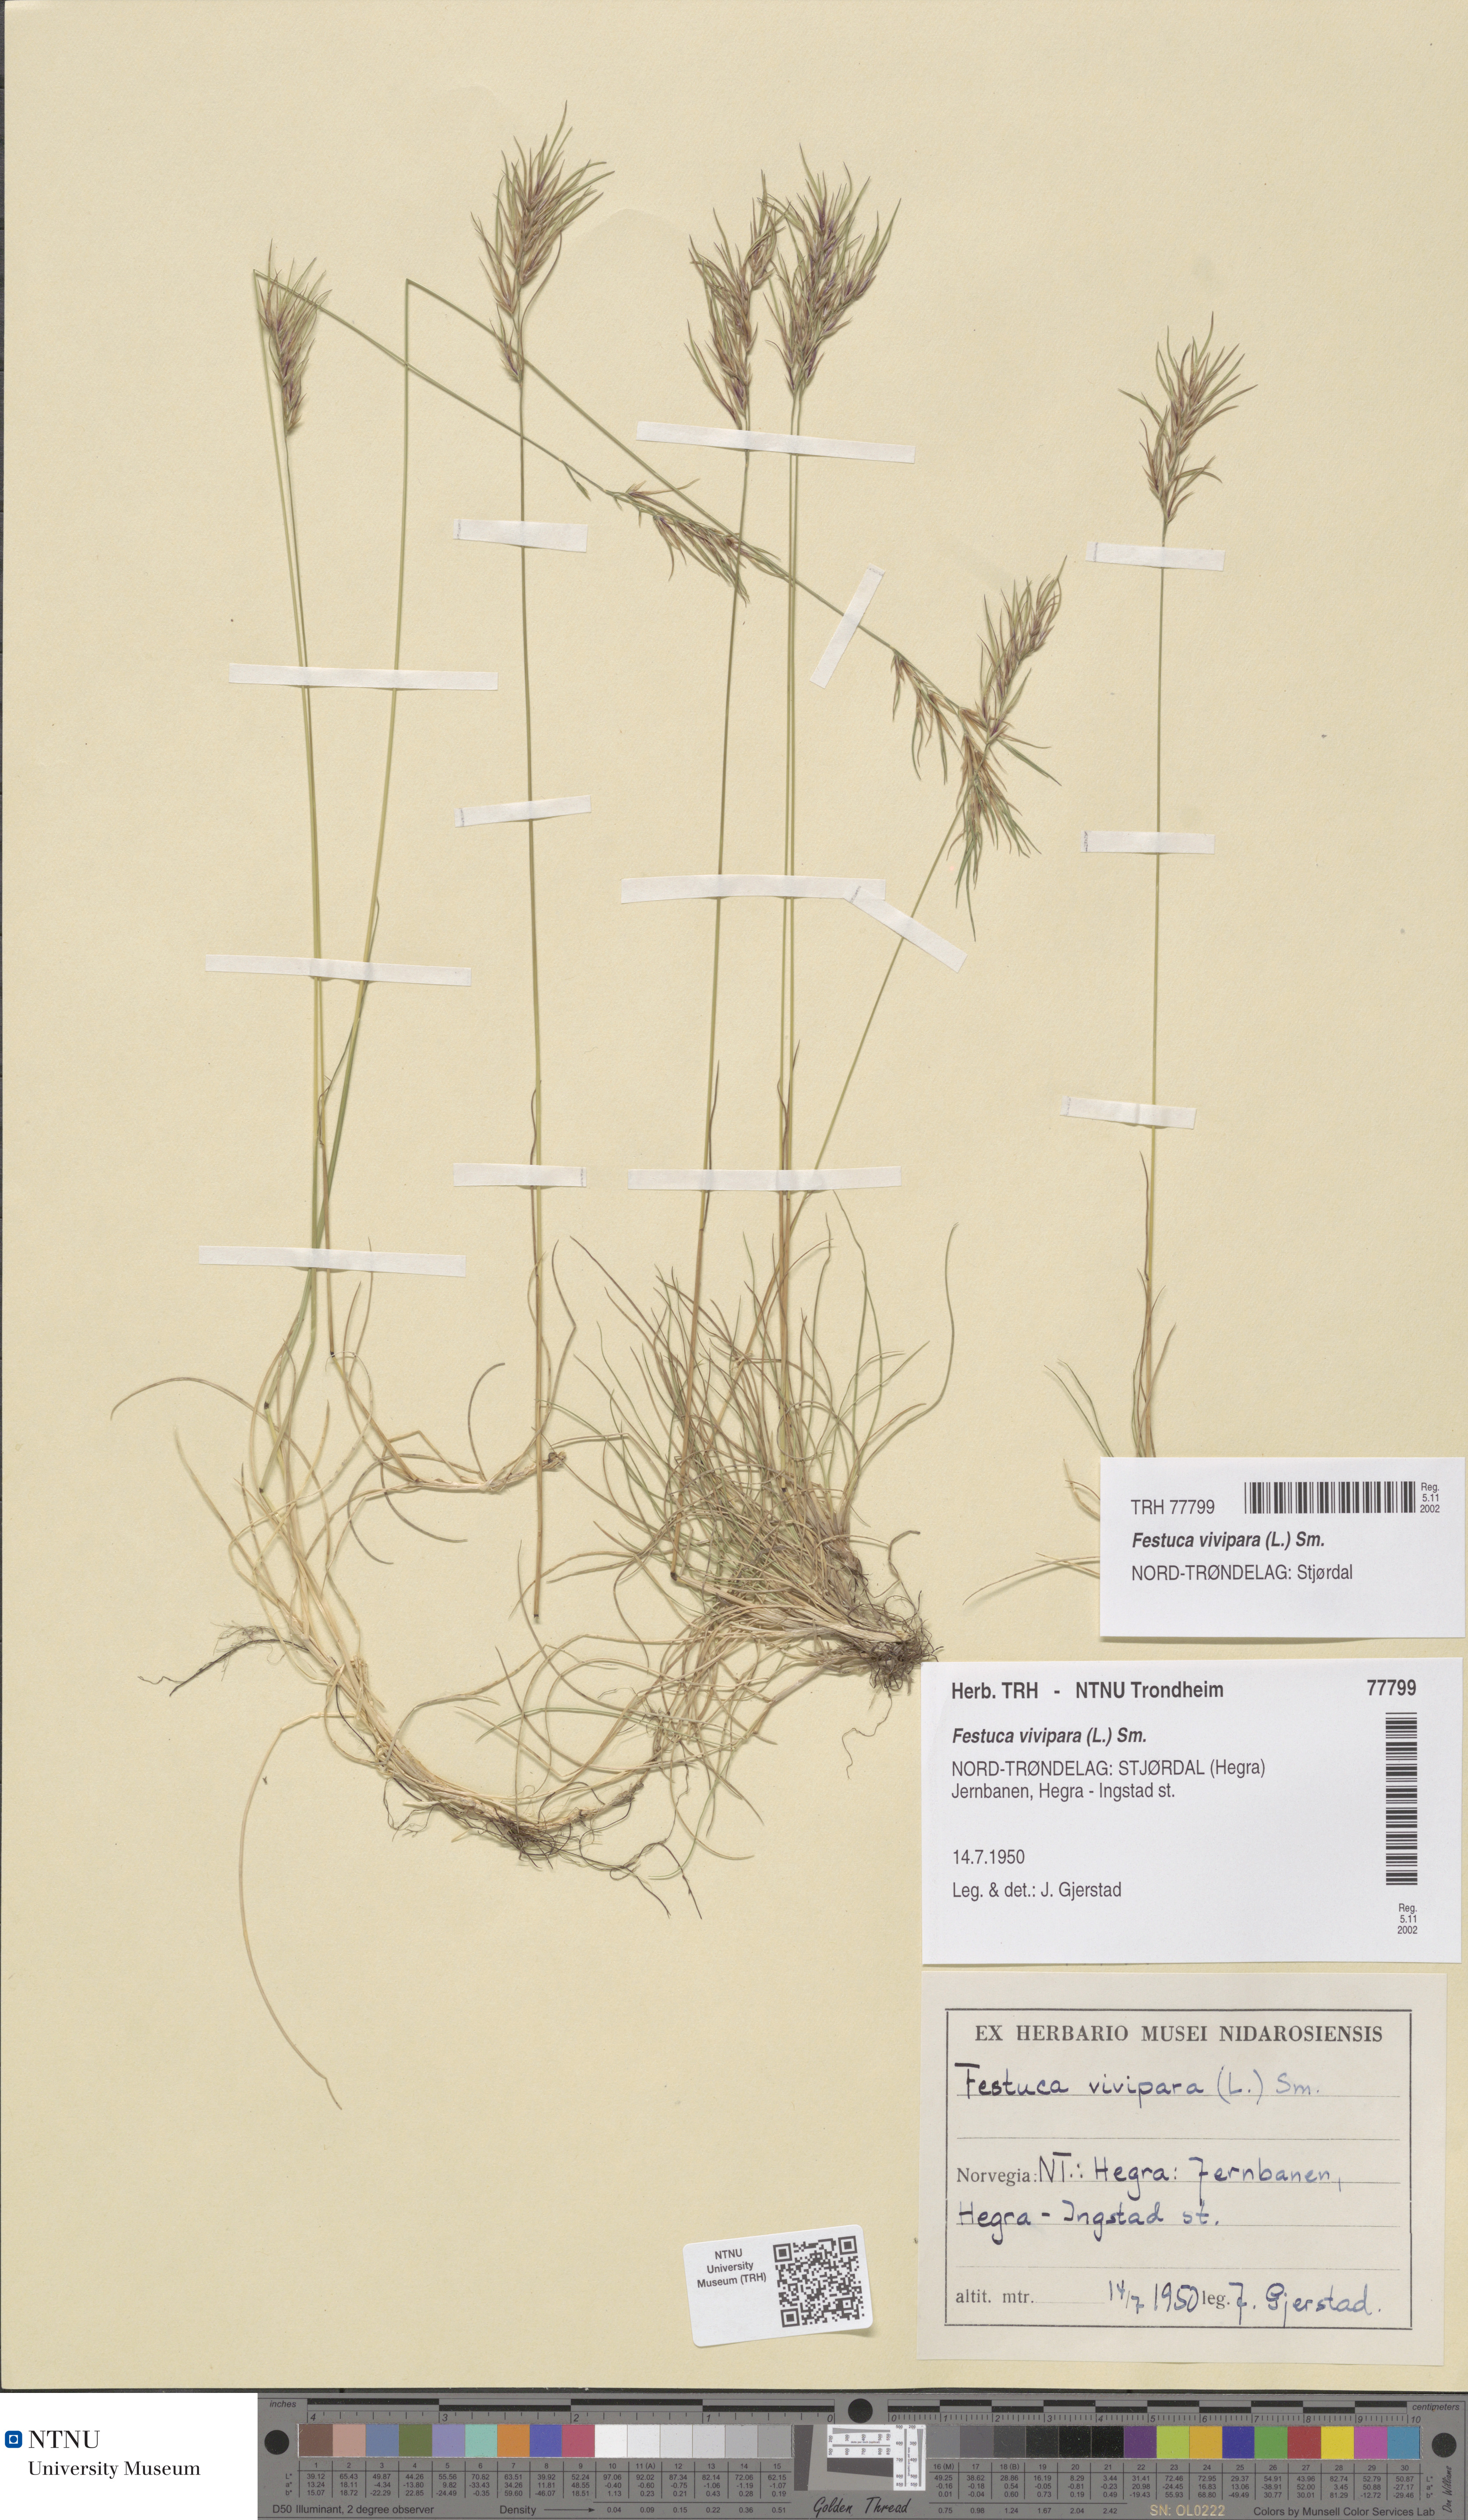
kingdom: Plantae
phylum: Tracheophyta
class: Liliopsida
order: Poales
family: Poaceae
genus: Festuca
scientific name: Festuca vivipara
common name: Viviparous sheep's-fescue
